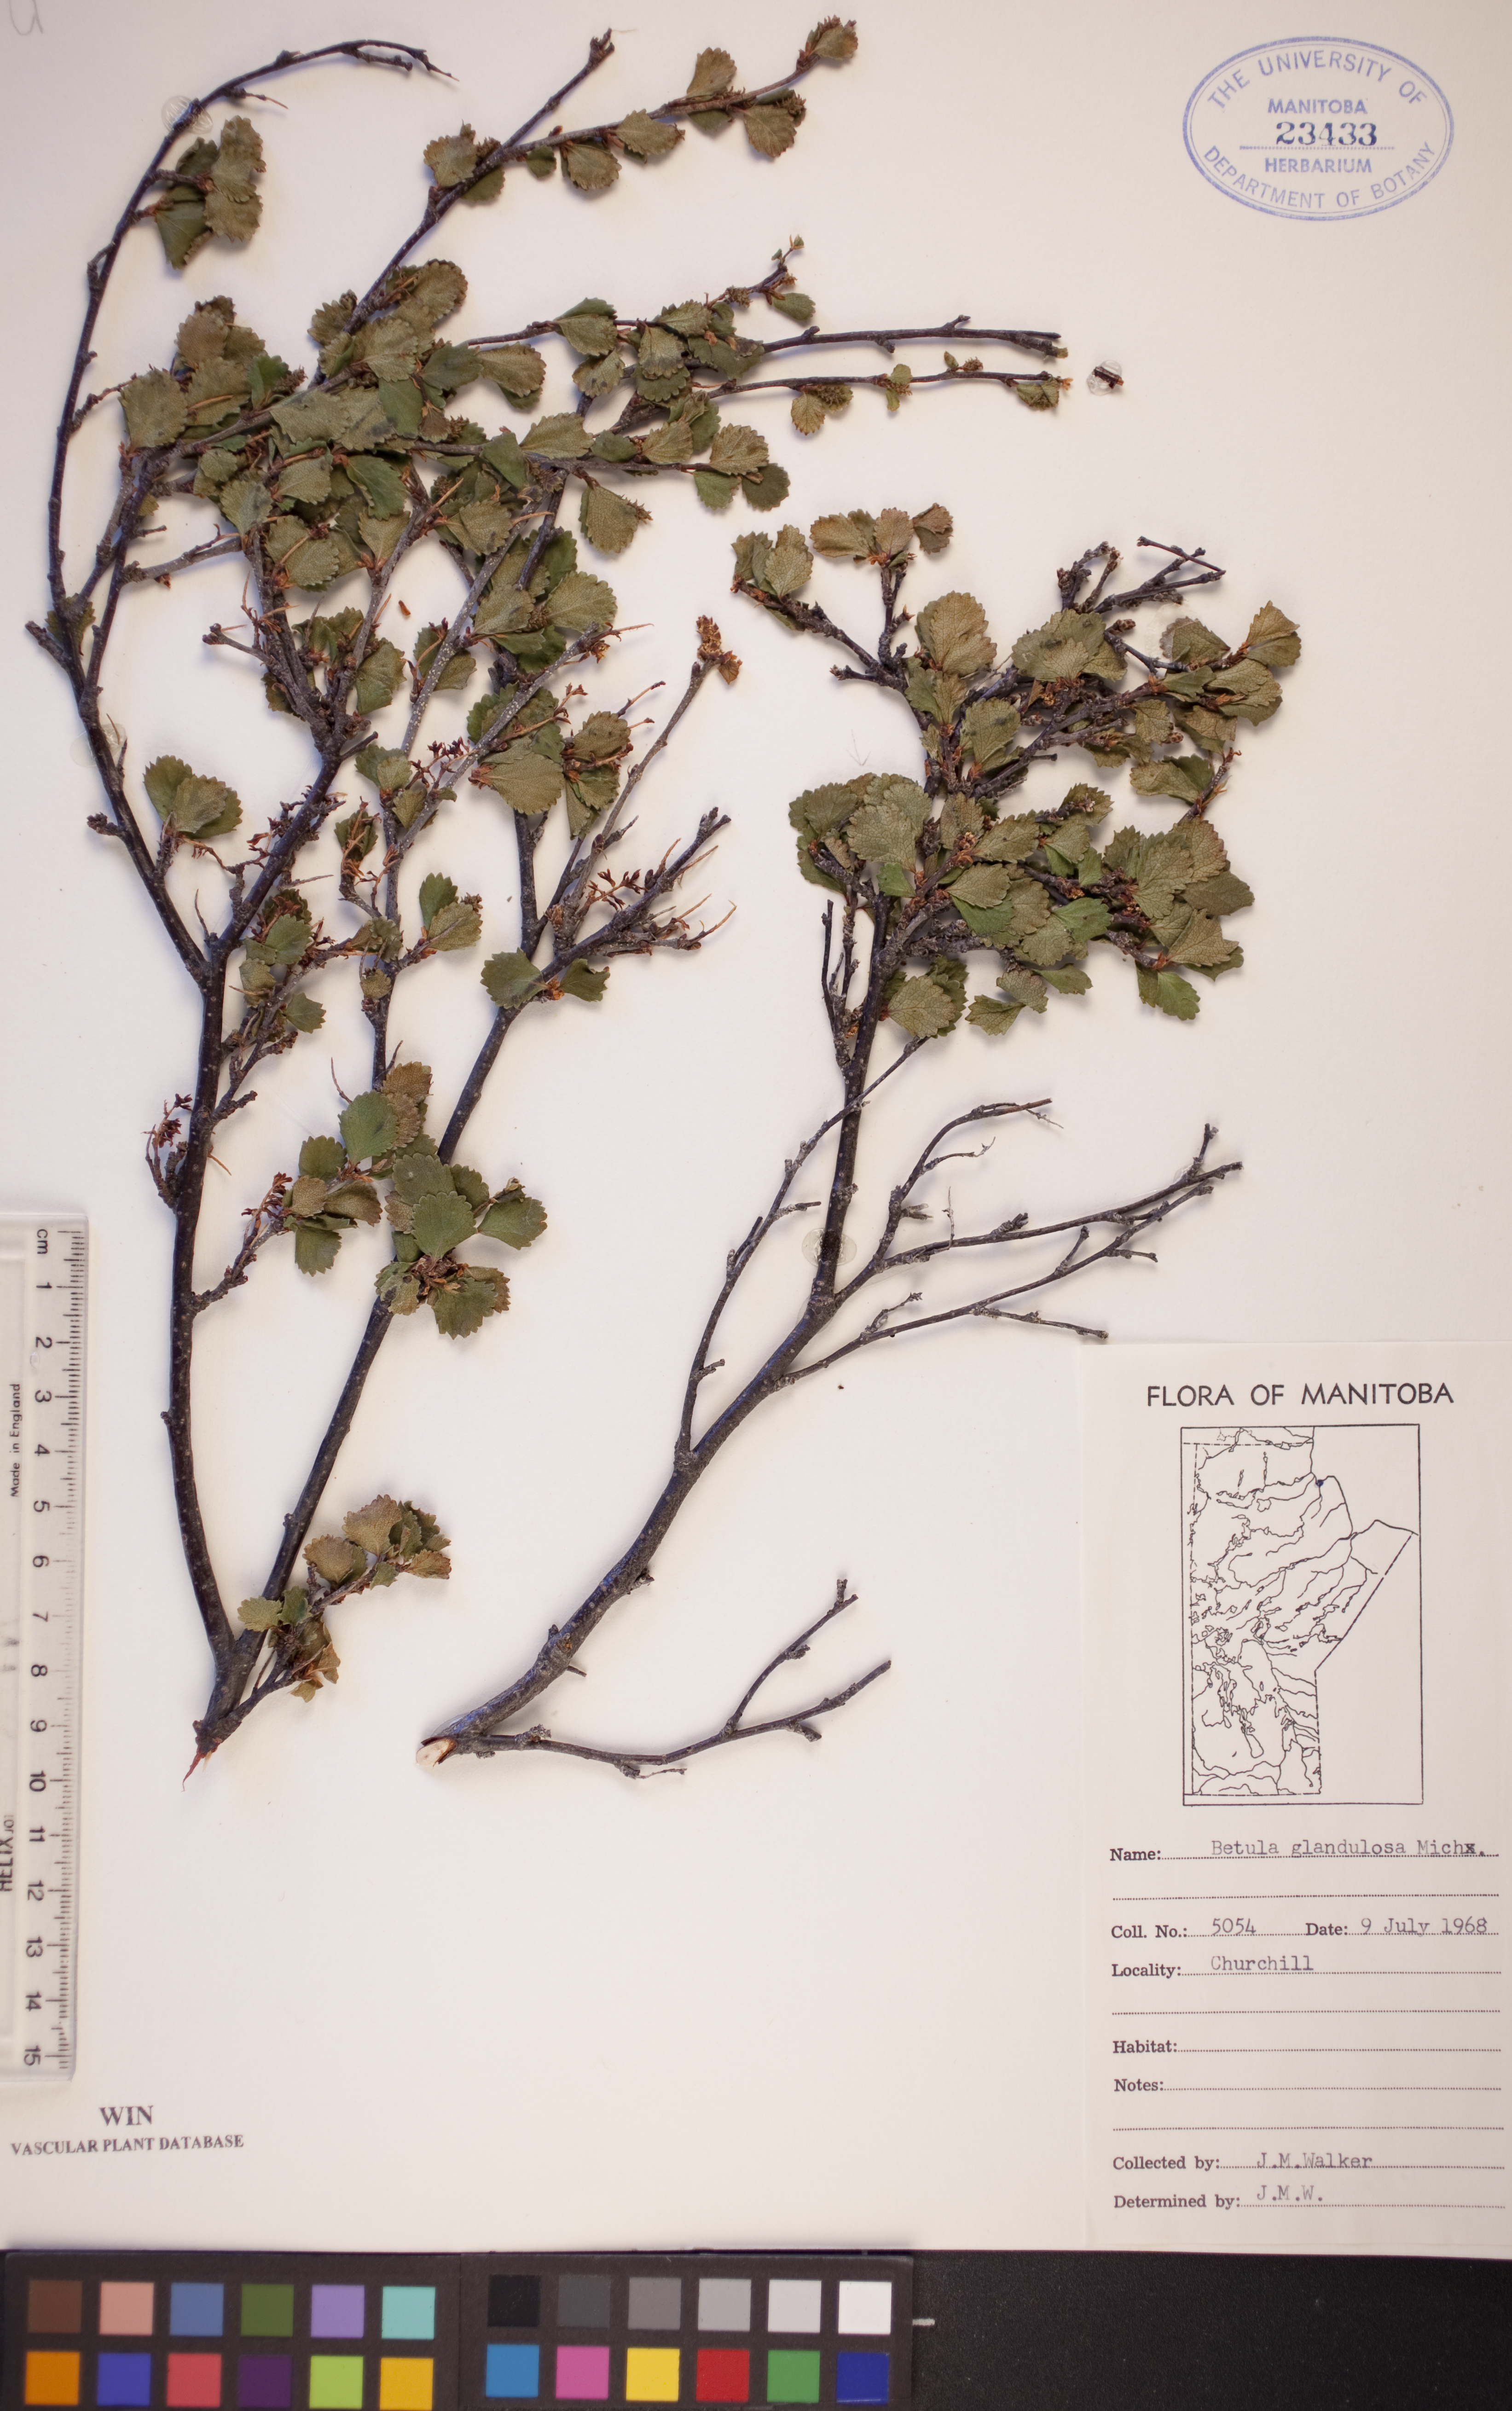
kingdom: Plantae
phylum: Tracheophyta
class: Magnoliopsida
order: Fagales
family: Betulaceae
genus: Betula
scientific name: Betula glandulosa
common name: Dwarf birch
